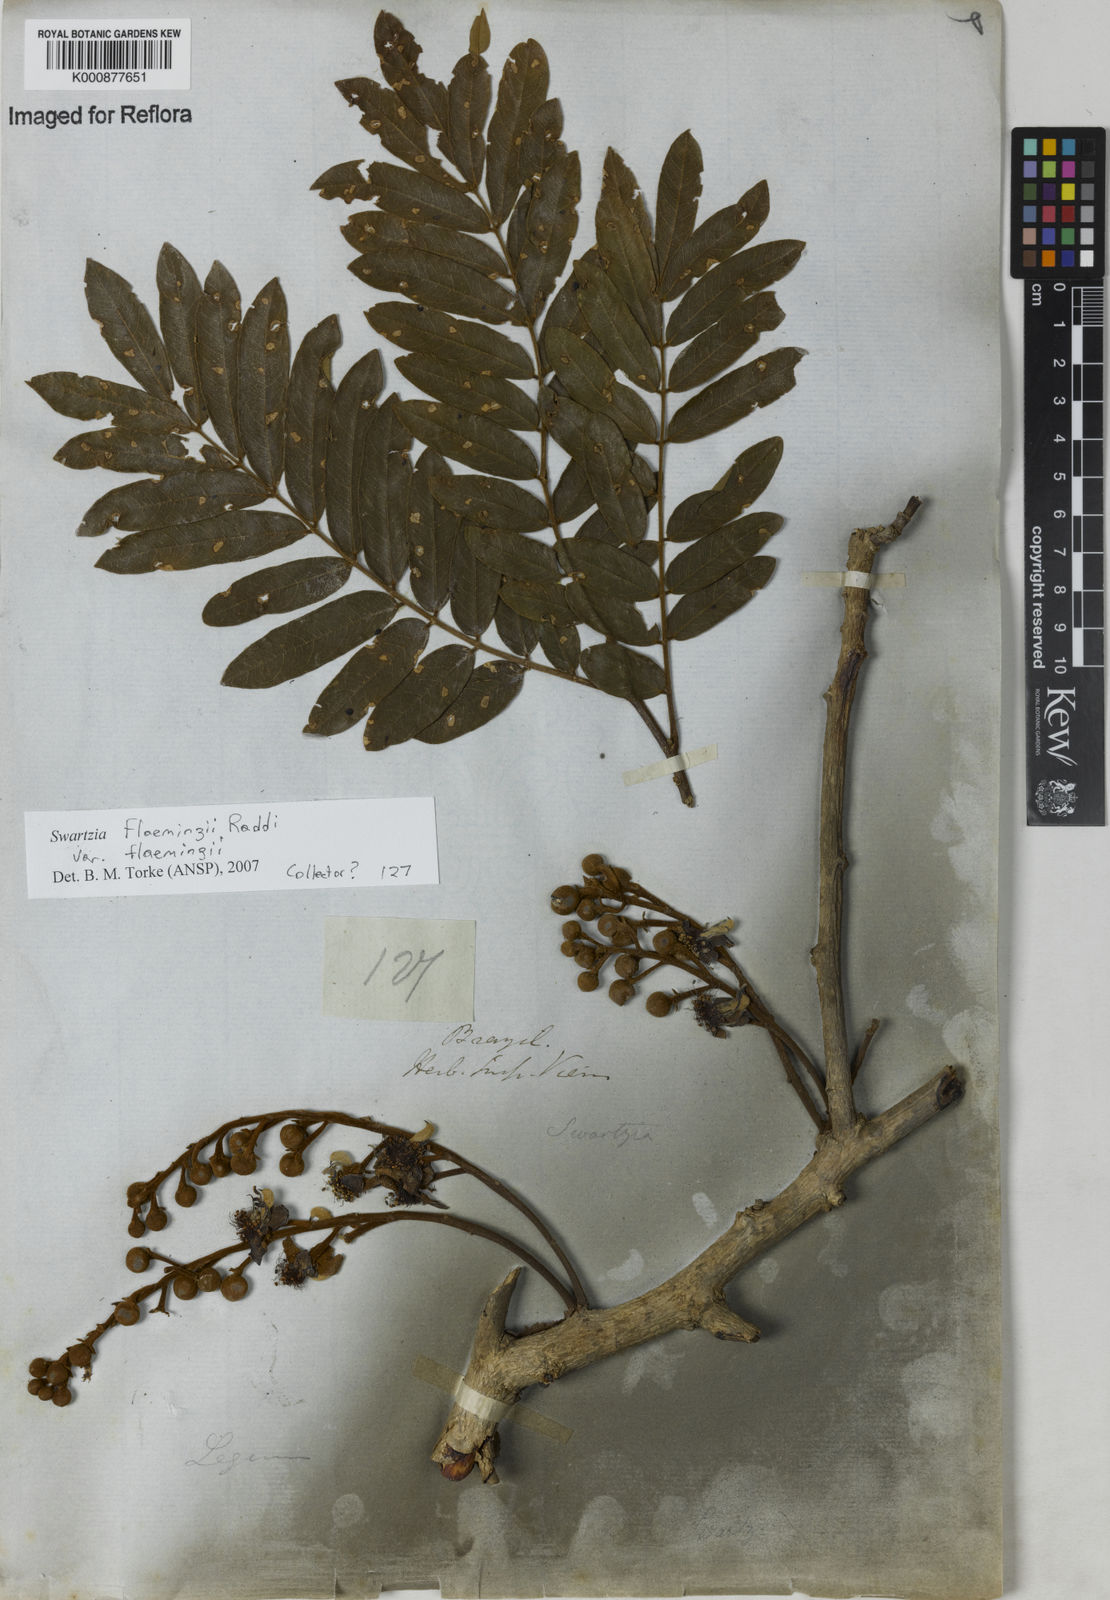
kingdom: Plantae
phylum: Tracheophyta
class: Magnoliopsida
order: Fabales
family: Fabaceae
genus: Swartzia
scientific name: Swartzia flaemingii
